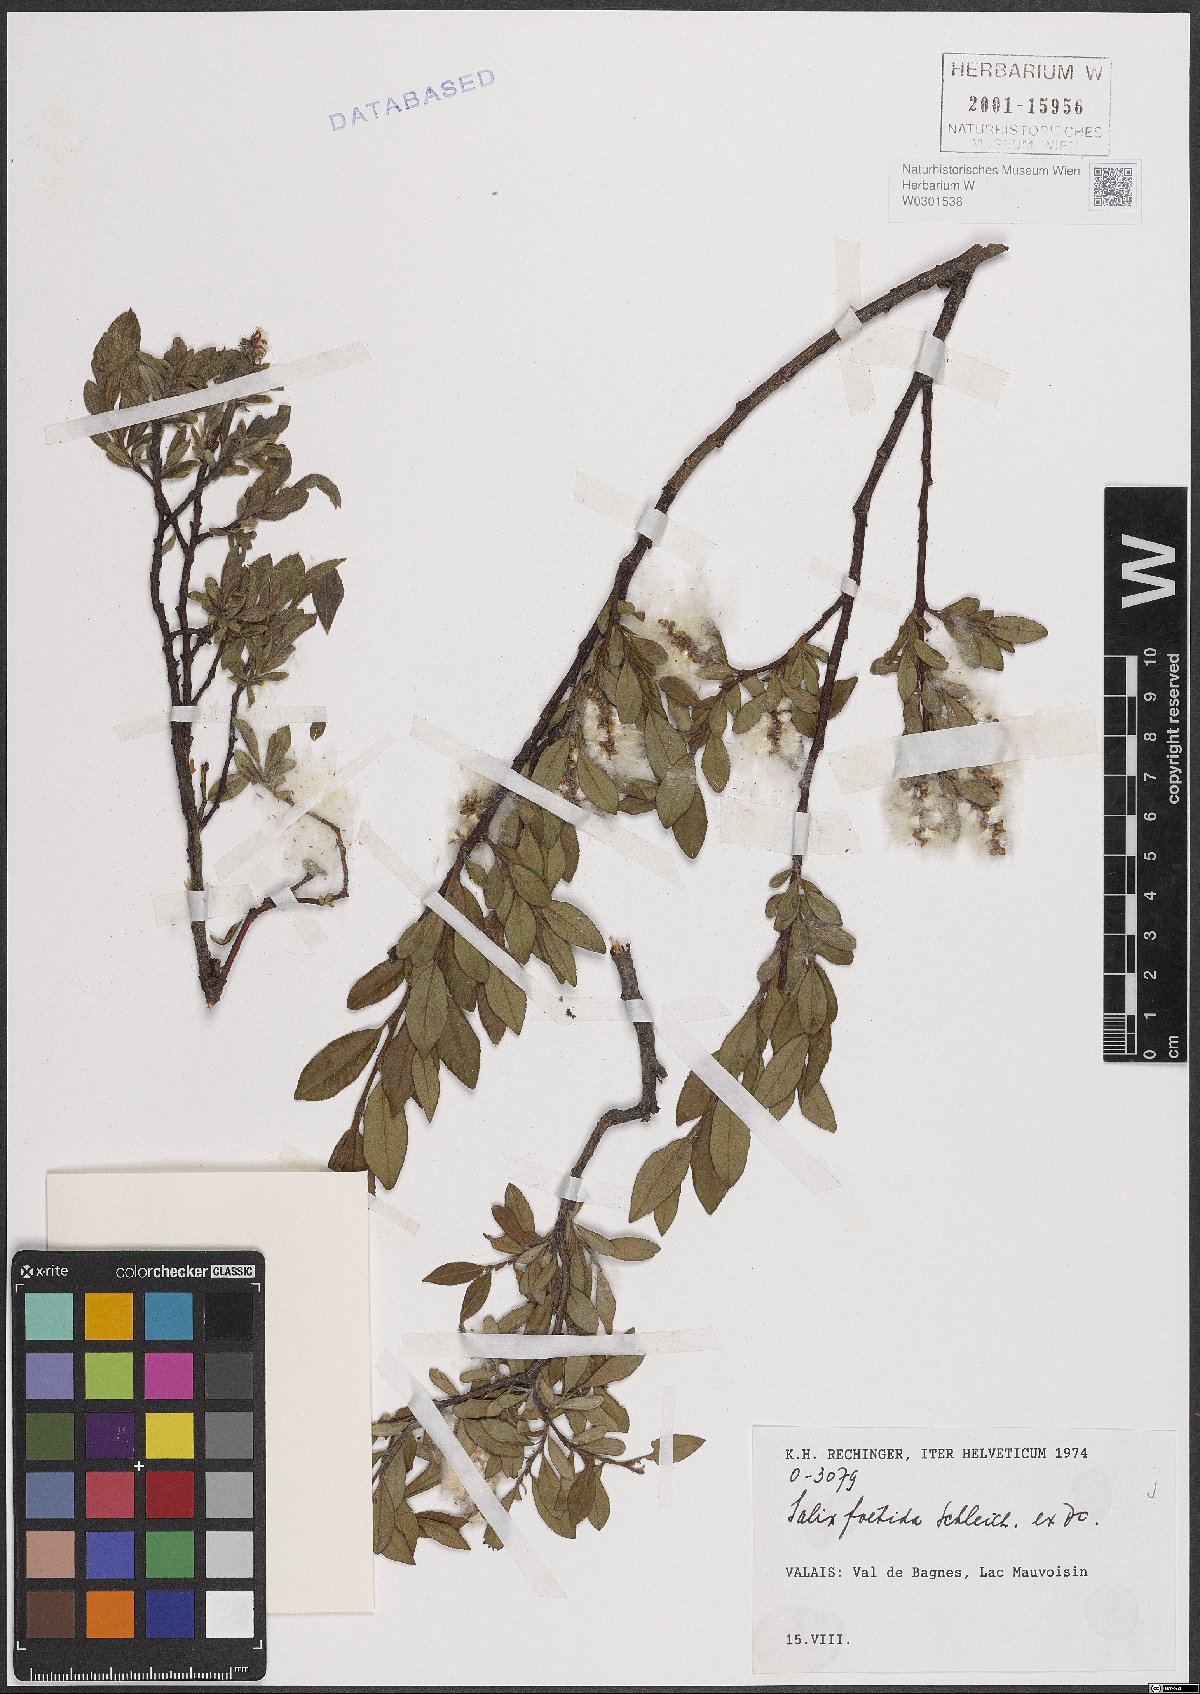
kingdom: Plantae
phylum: Tracheophyta
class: Magnoliopsida
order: Malpighiales
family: Salicaceae
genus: Salix
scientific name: Salix foetida
